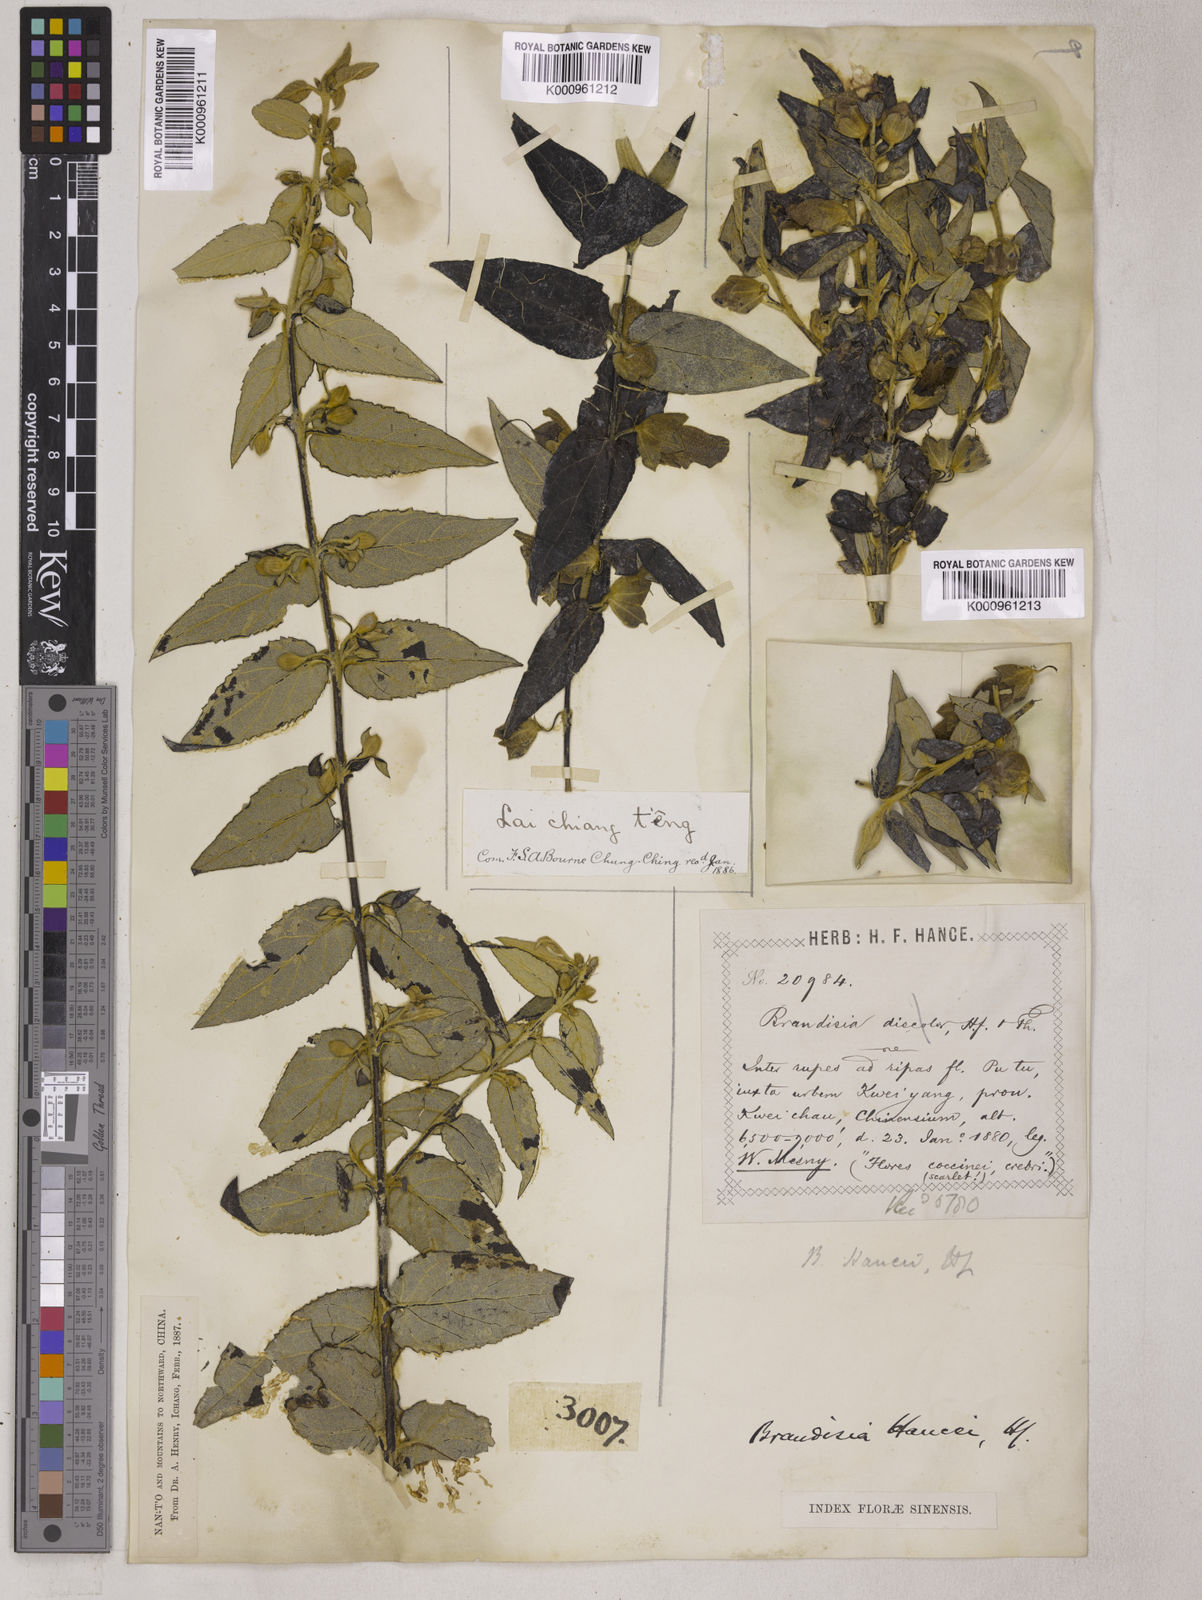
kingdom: Plantae
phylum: Tracheophyta
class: Magnoliopsida
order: Lamiales
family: Orobanchaceae
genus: Brandisia
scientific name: Brandisia hancei
